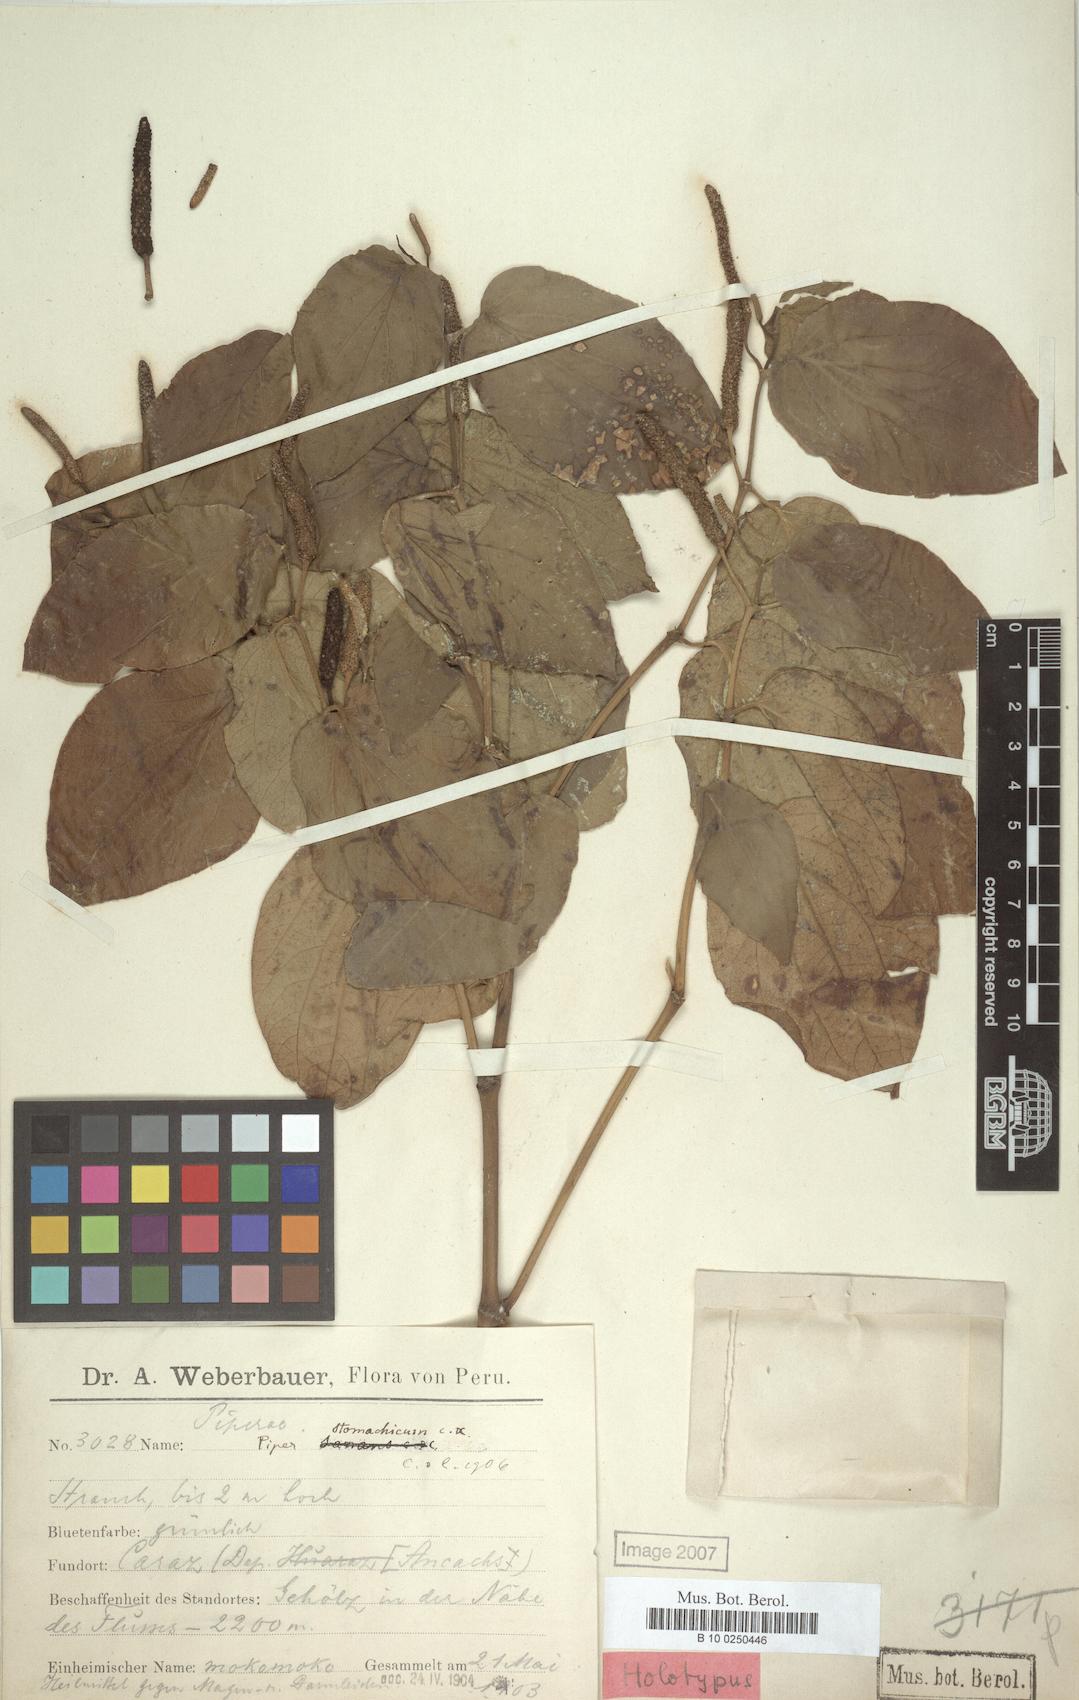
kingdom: Plantae
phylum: Tracheophyta
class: Magnoliopsida
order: Piperales
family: Piperaceae
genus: Piper
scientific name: Piper stomachicum
